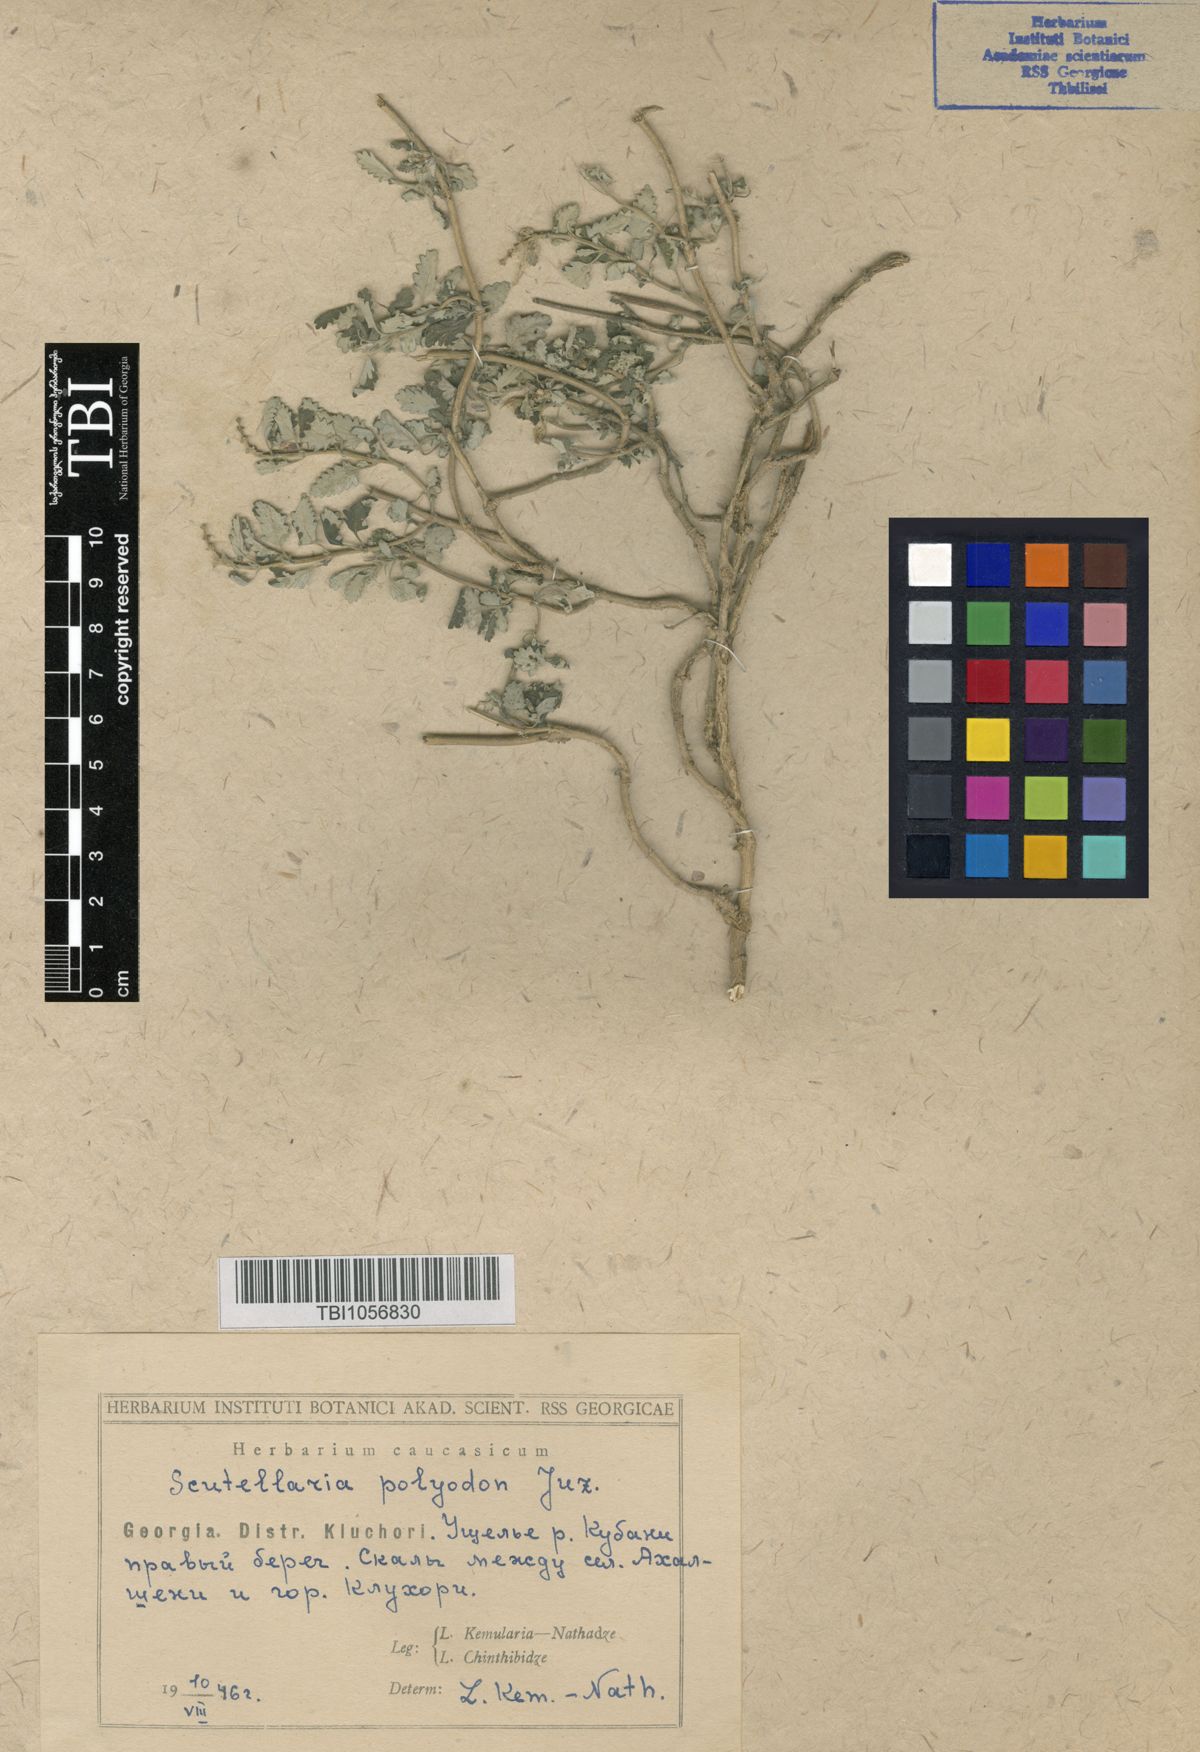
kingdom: Plantae
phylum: Tracheophyta
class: Magnoliopsida
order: Lamiales
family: Lamiaceae
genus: Scutellaria
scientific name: Scutellaria caucasica
